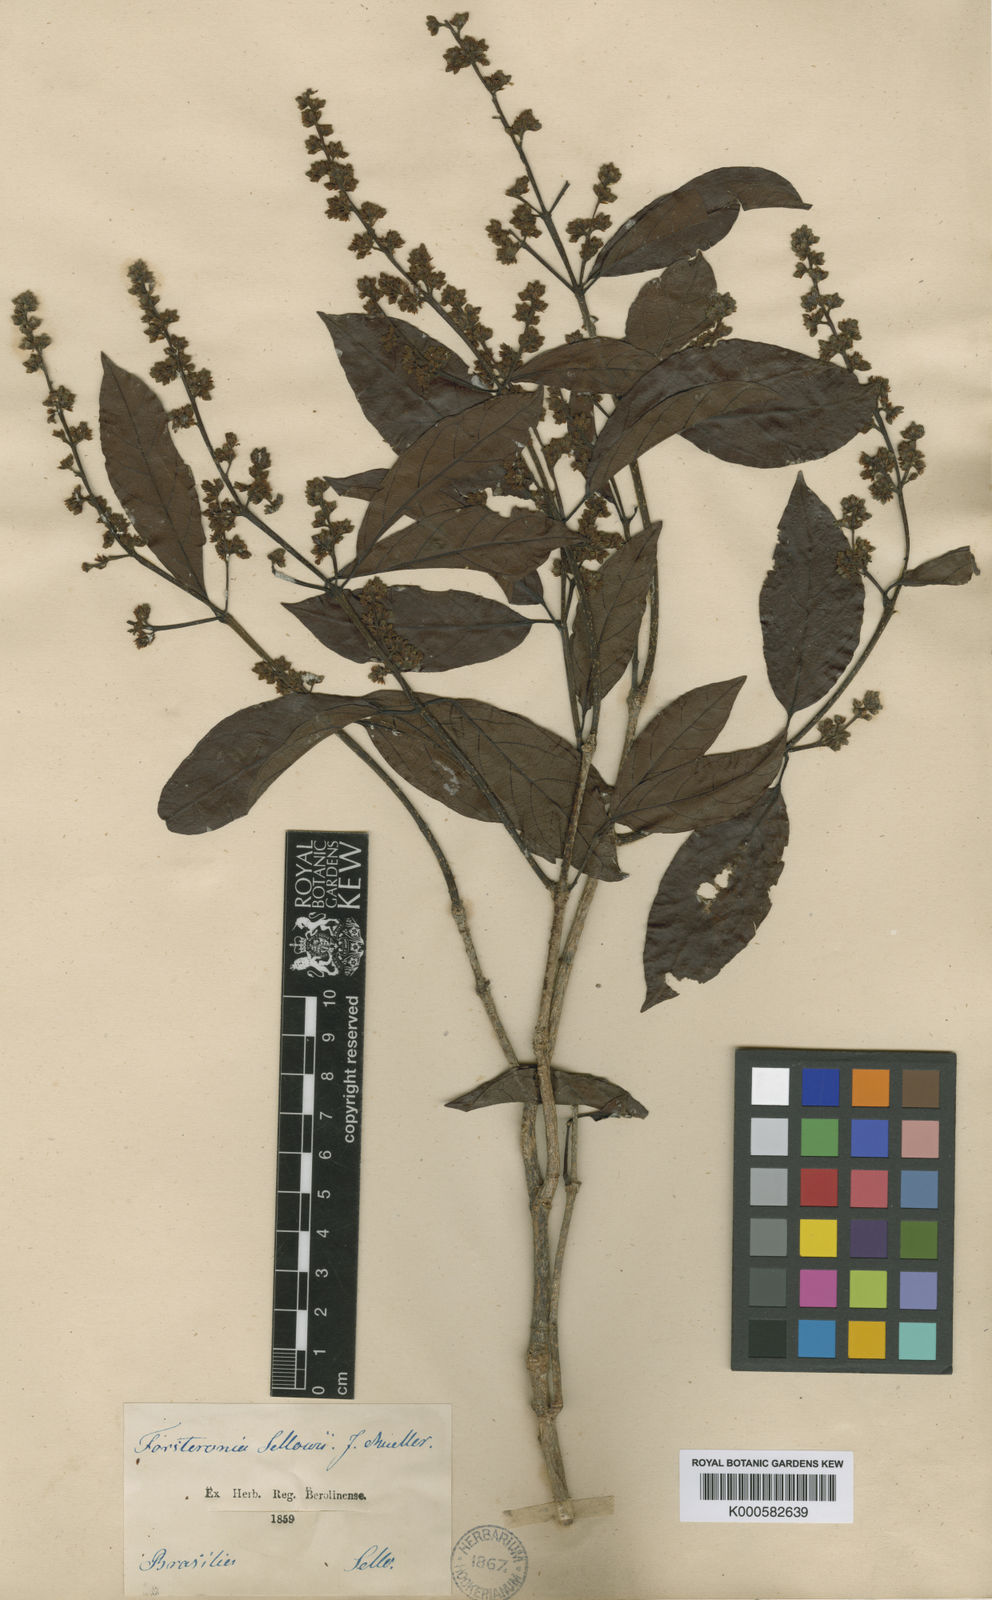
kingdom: Plantae
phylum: Tracheophyta
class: Magnoliopsida
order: Gentianales
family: Apocynaceae
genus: Forsteronia
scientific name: Forsteronia
